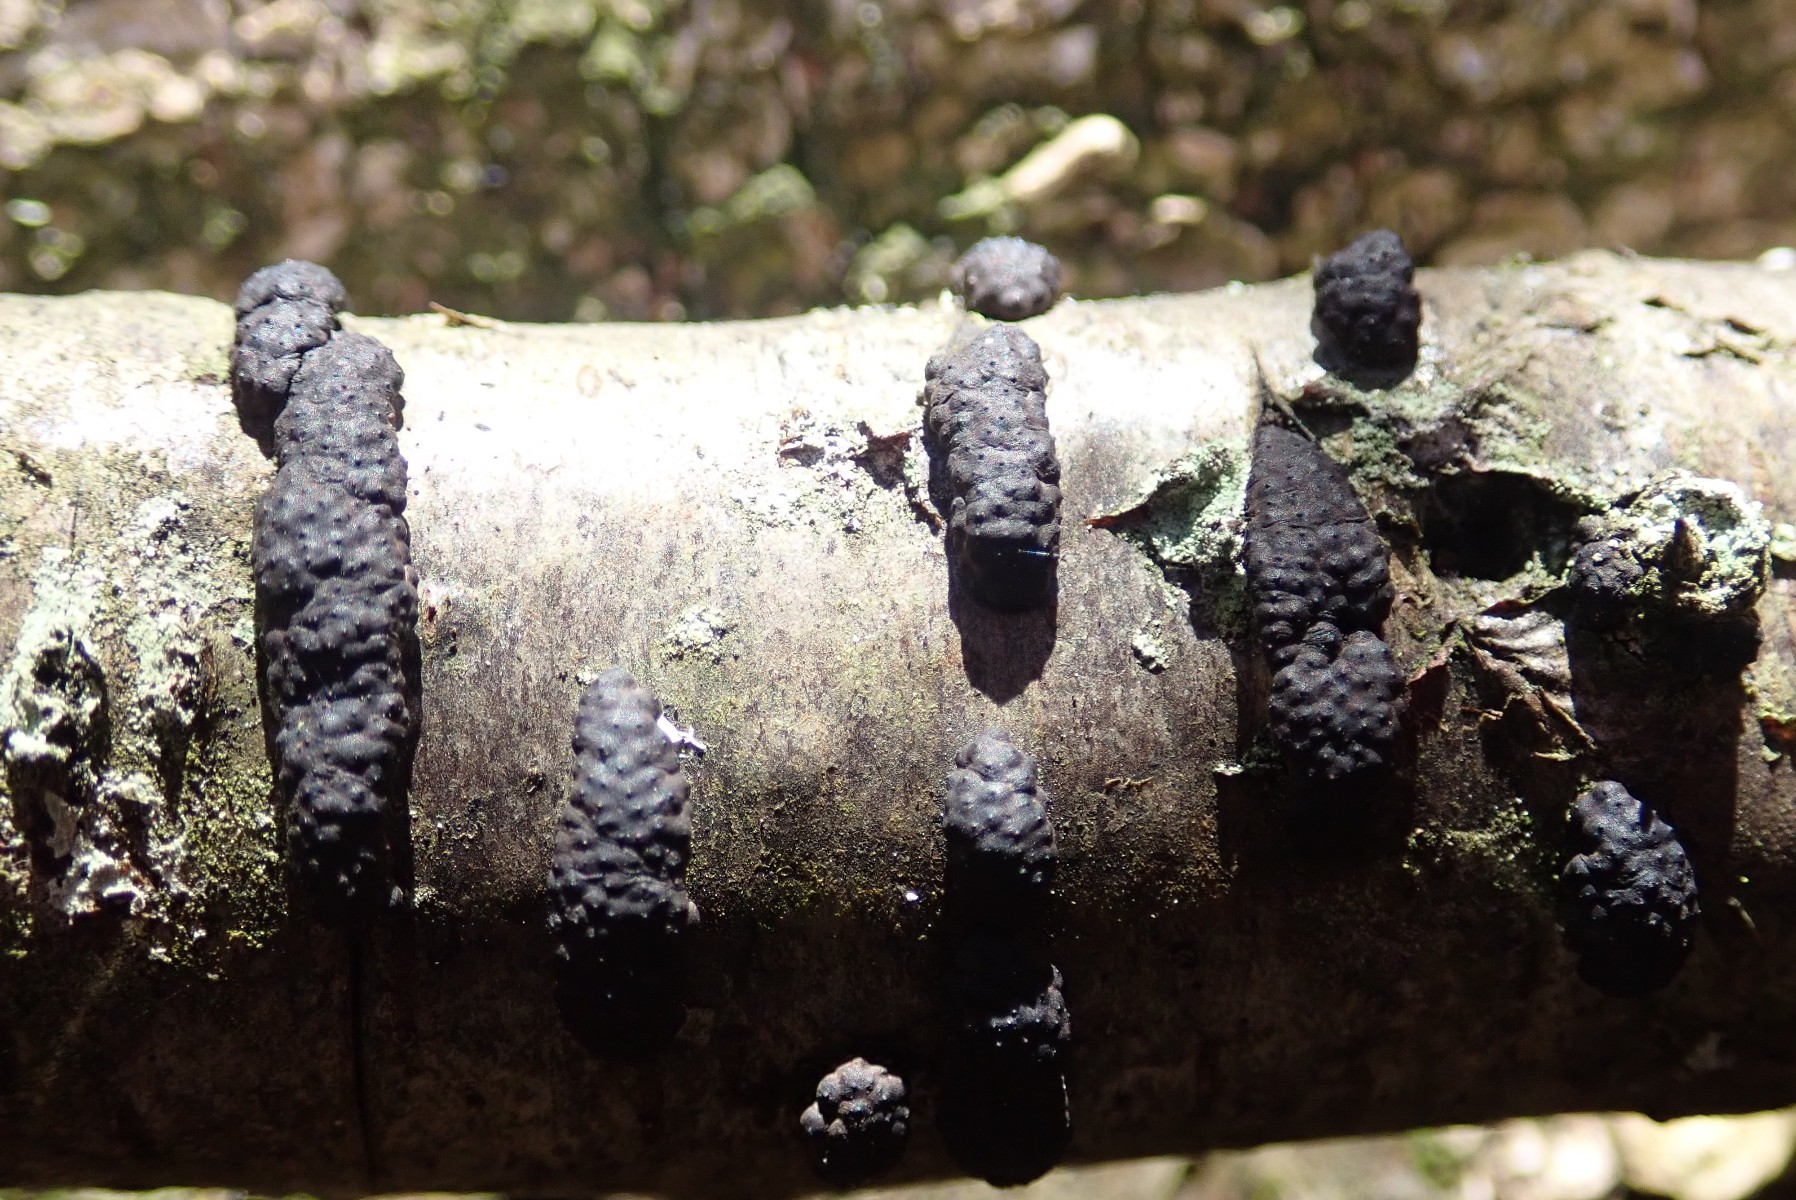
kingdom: Fungi
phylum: Ascomycota
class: Sordariomycetes
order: Xylariales
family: Hypoxylaceae
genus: Jackrogersella
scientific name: Jackrogersella multiformis
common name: foranderlig kulbær
